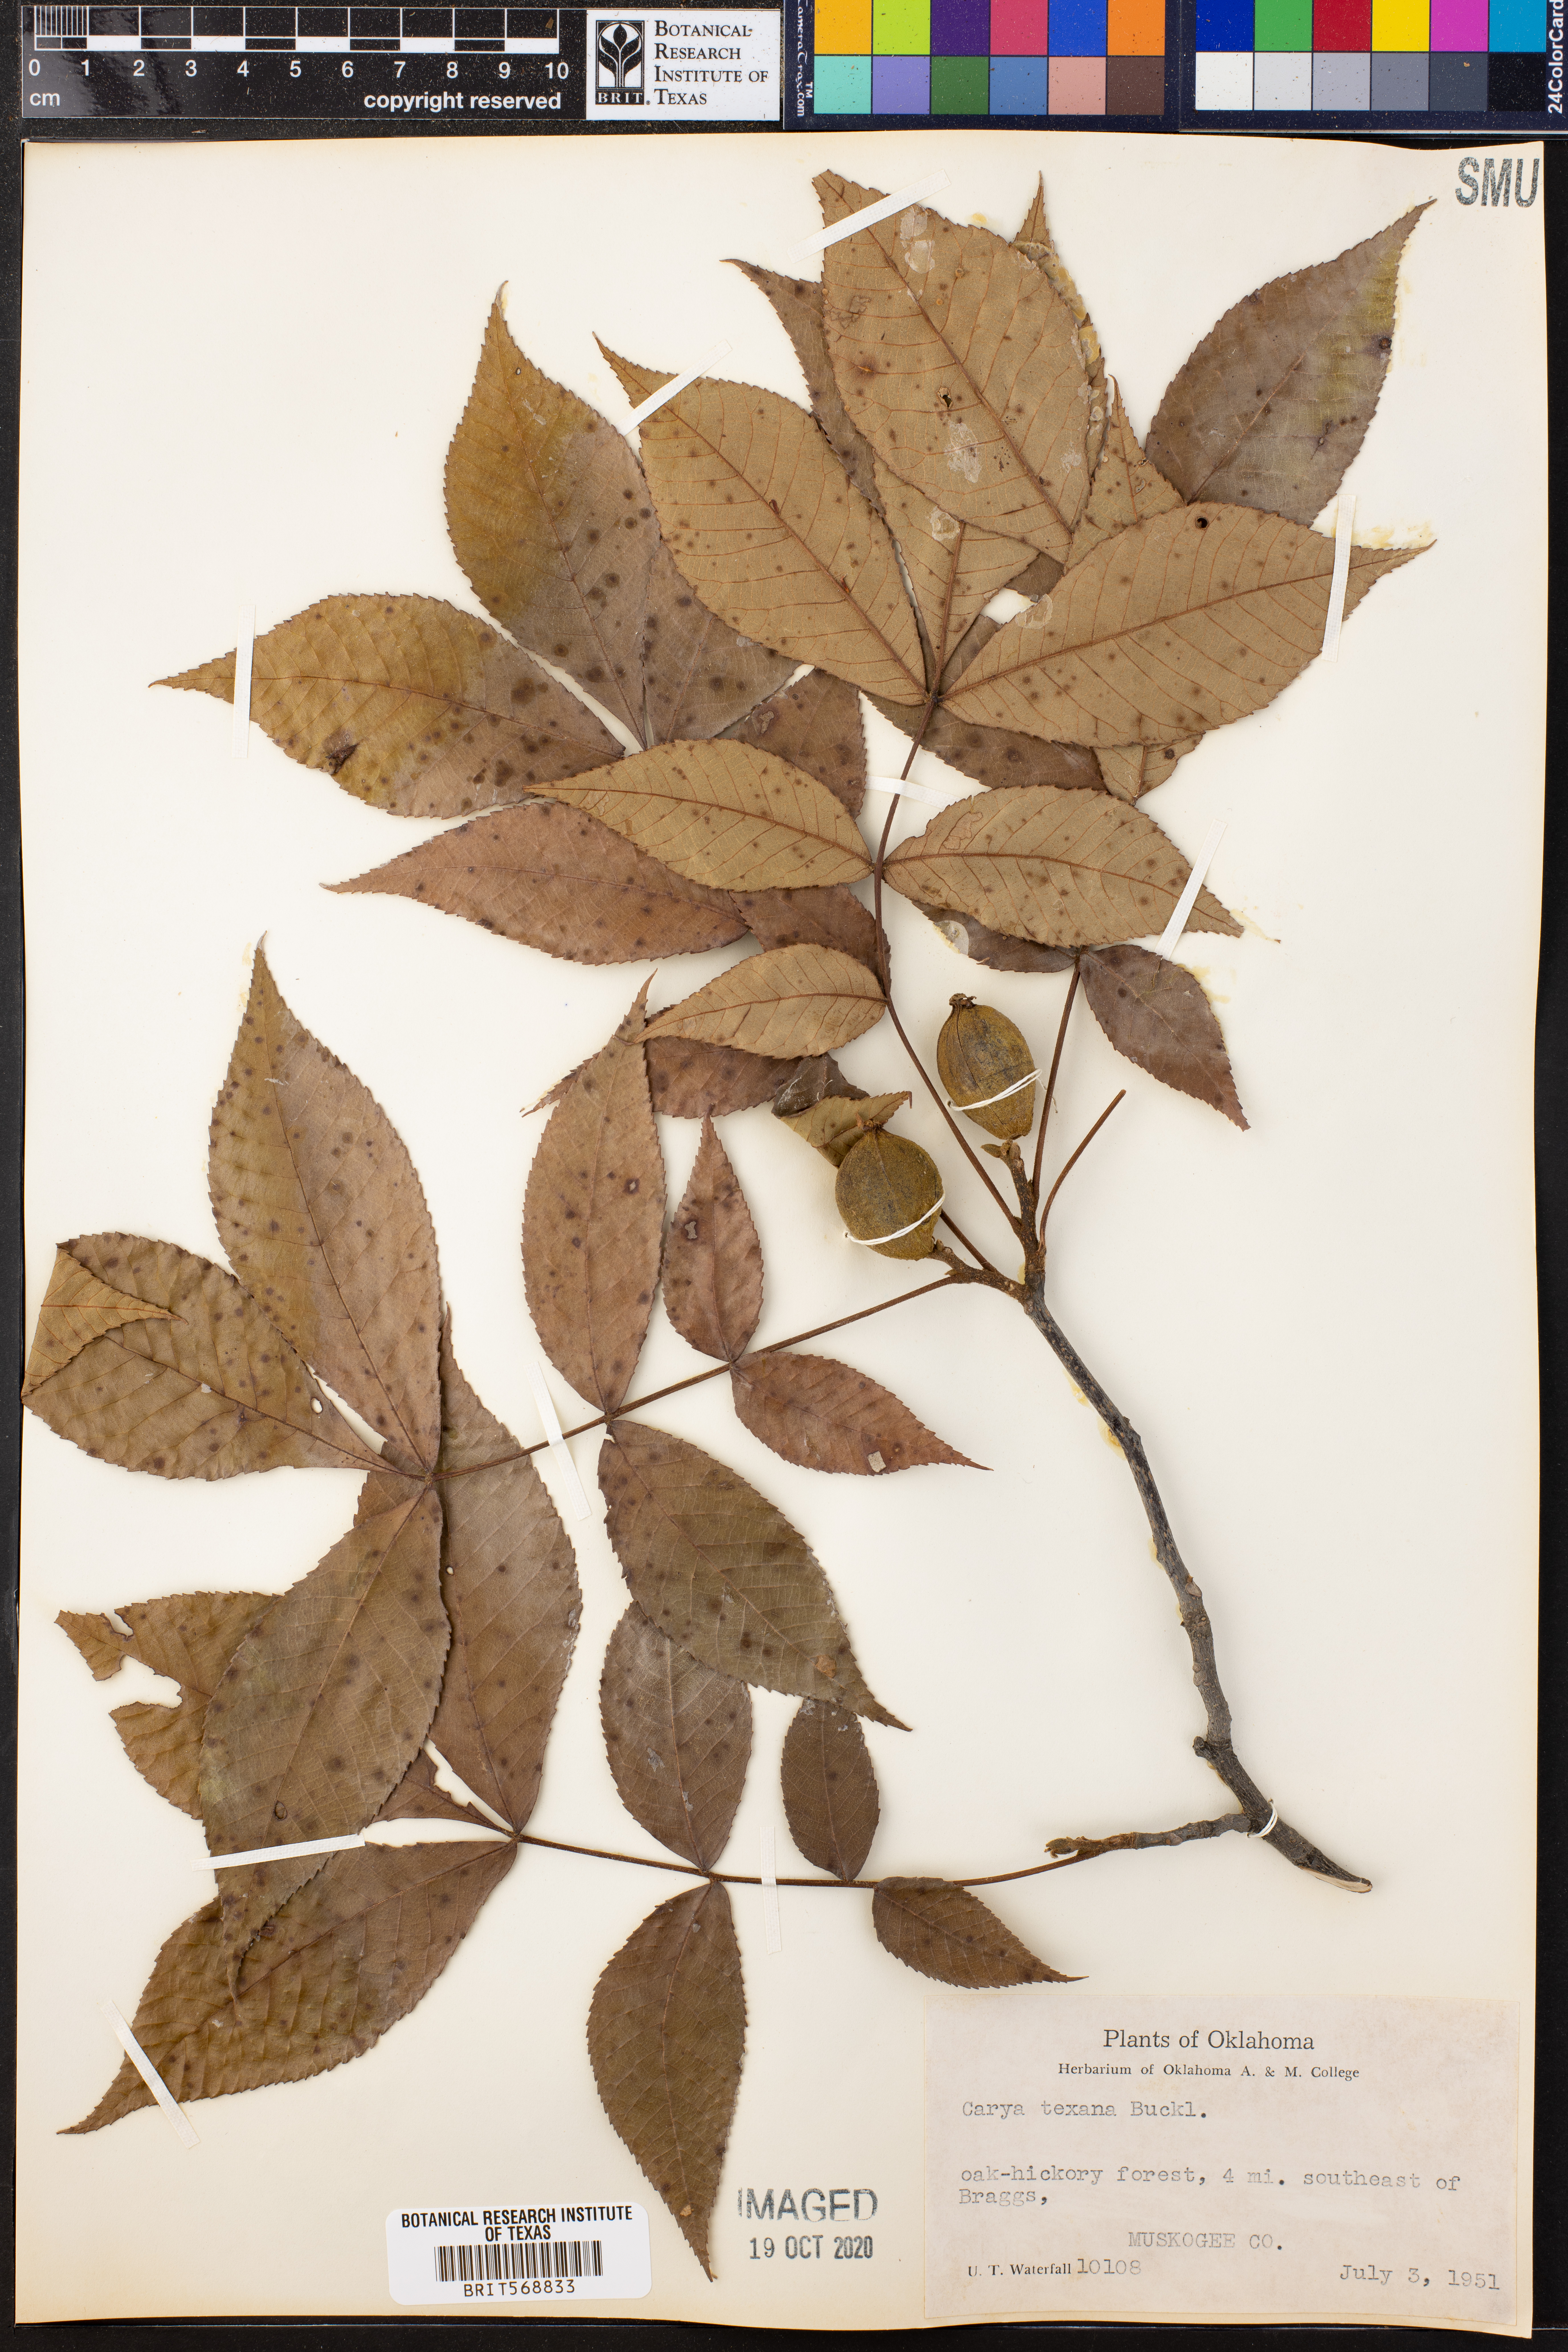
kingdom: Plantae
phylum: Tracheophyta
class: Magnoliopsida
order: Fagales
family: Juglandaceae
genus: Carya
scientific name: Carya texana
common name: Black hickory
